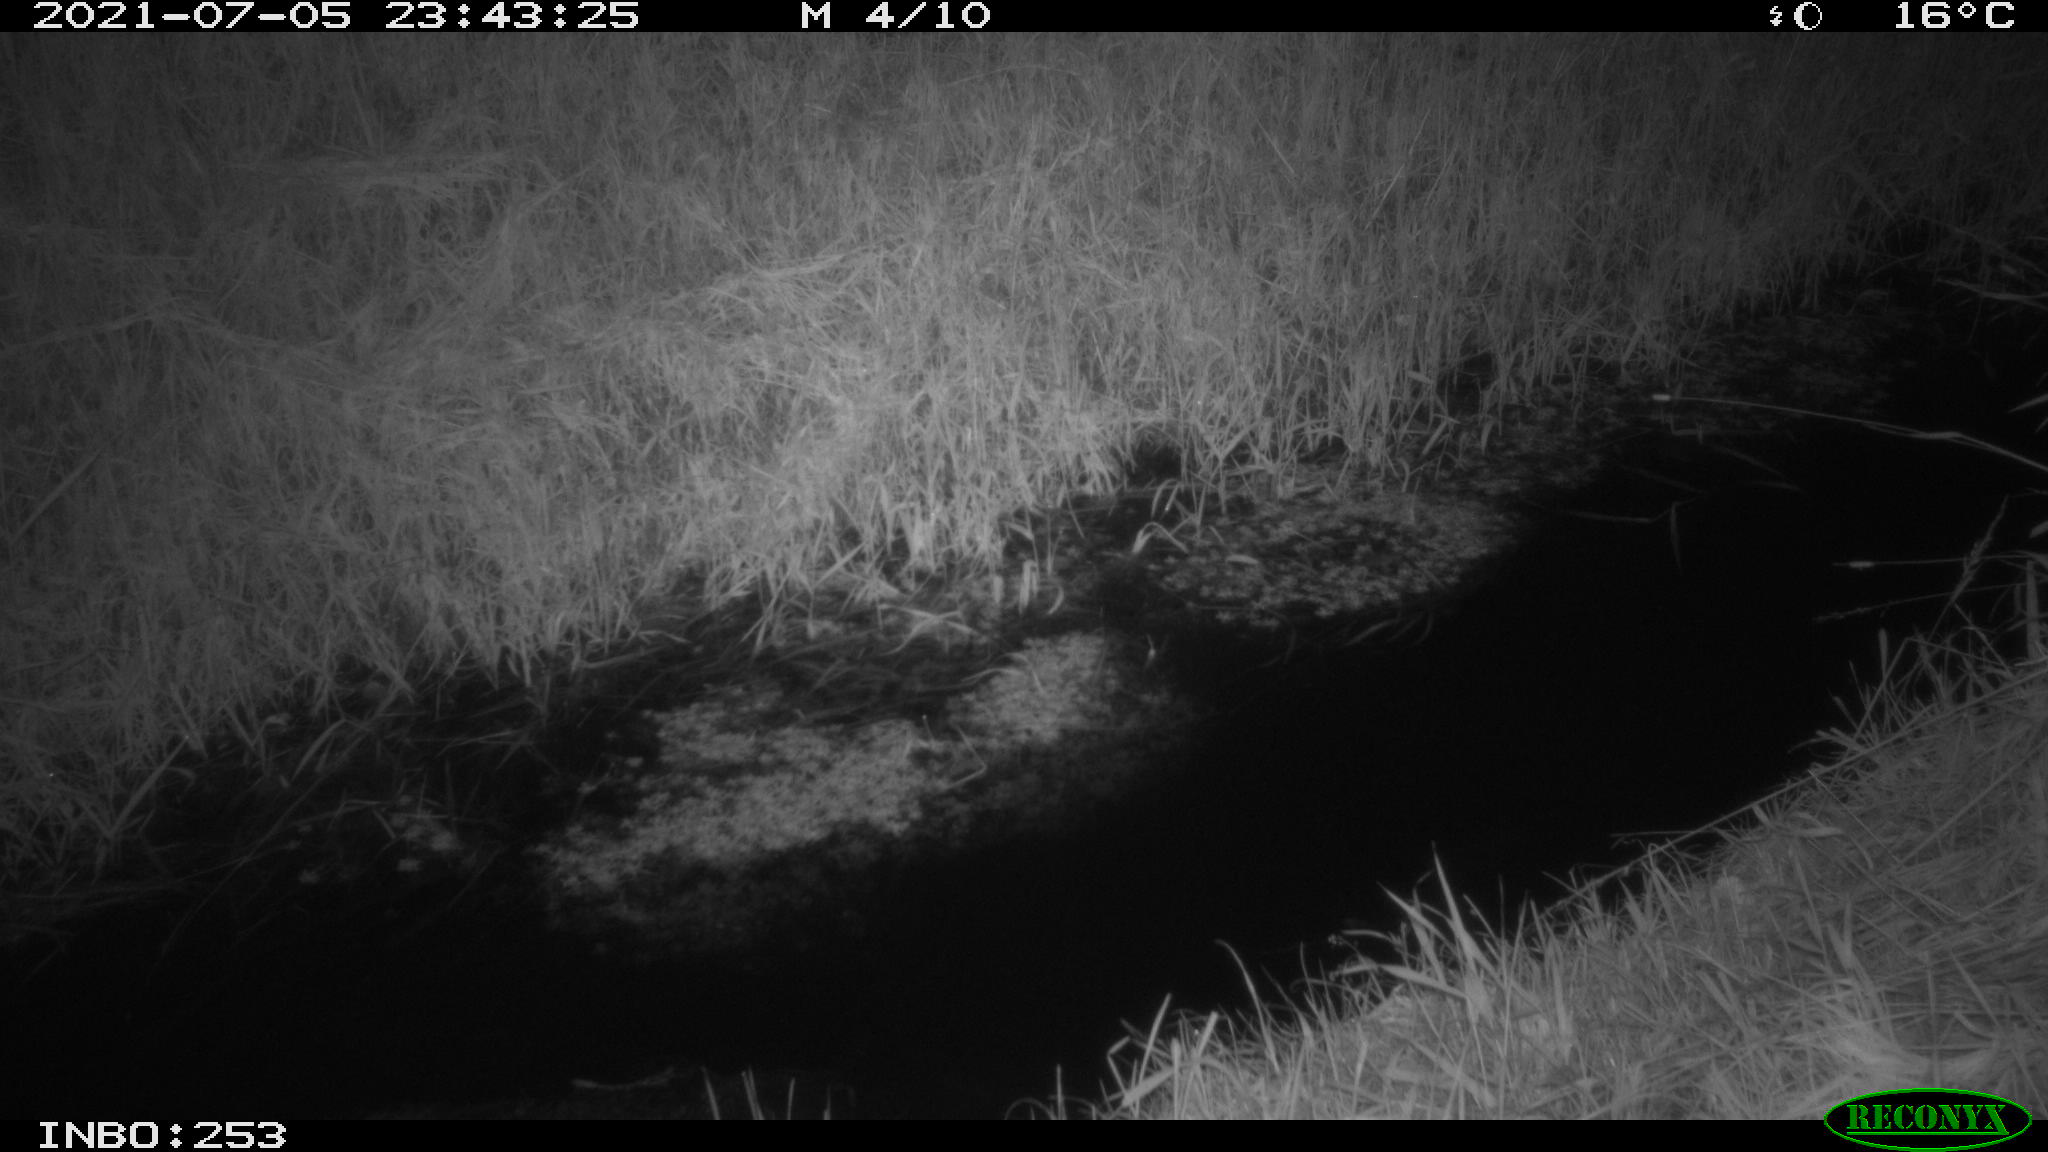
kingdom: Animalia
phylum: Chordata
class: Mammalia
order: Lagomorpha
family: Leporidae
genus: Lepus
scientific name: Lepus europaeus
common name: European hare
